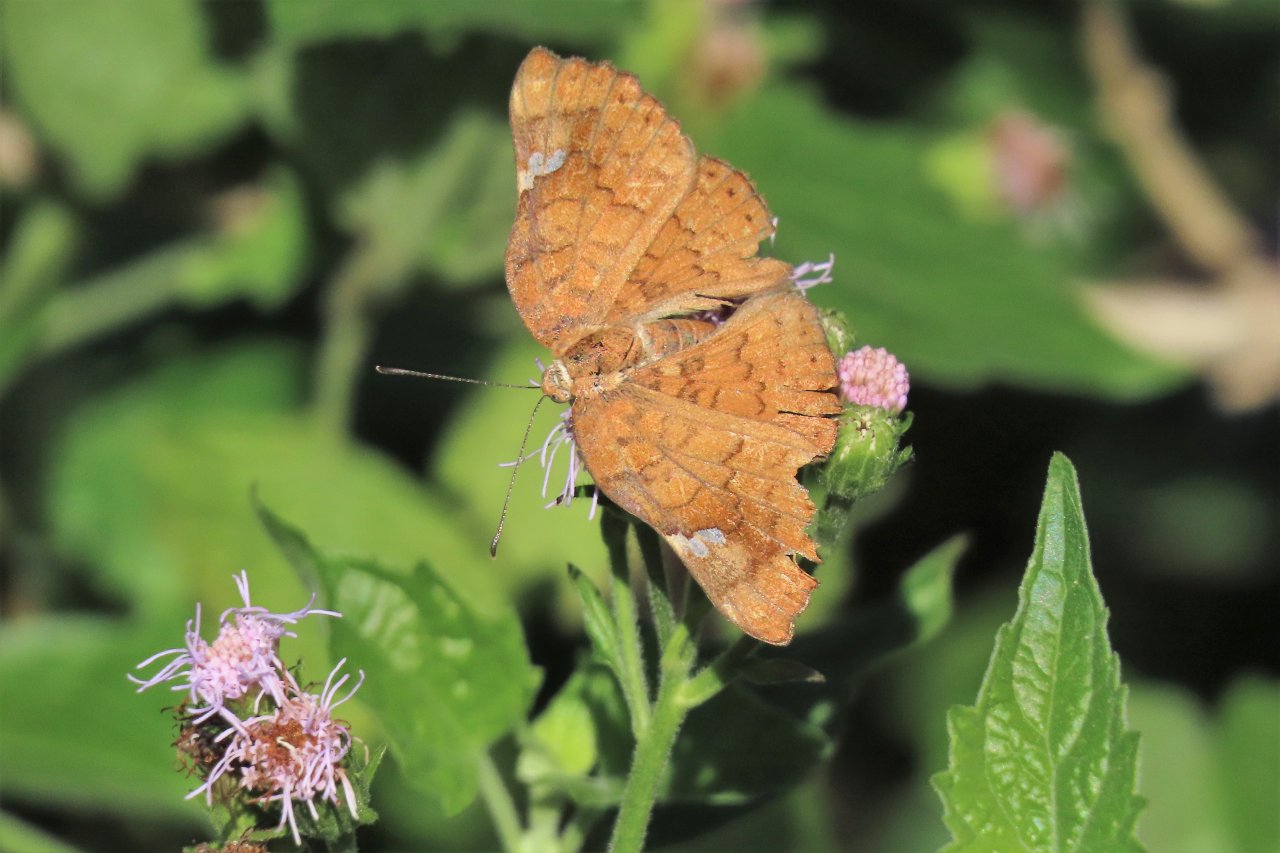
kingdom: Animalia
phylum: Arthropoda
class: Insecta
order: Lepidoptera
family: Lycaenidae
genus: Emesis
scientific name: Emesis emesia
